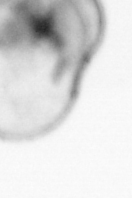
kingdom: Animalia
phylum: Arthropoda
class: Copepoda
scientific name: Copepoda
